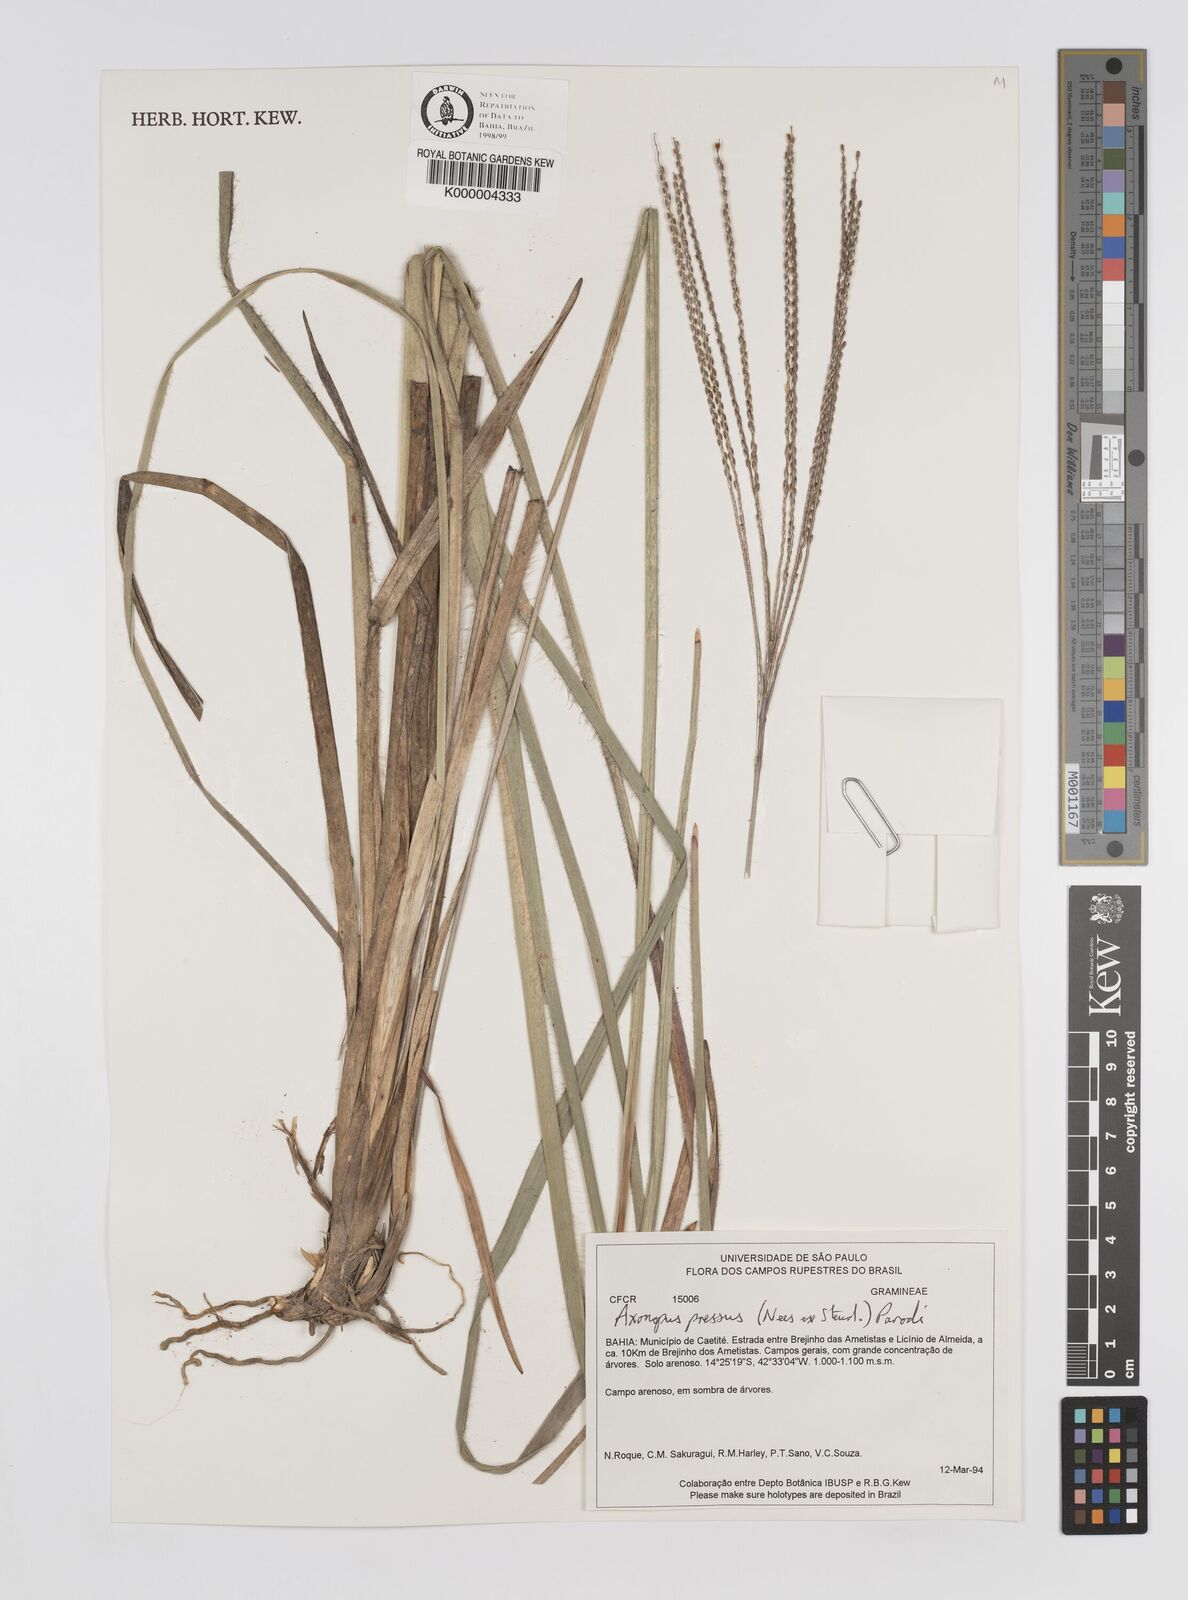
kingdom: Plantae
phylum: Tracheophyta
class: Liliopsida
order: Poales
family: Poaceae
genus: Axonopus
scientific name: Axonopus pressus
